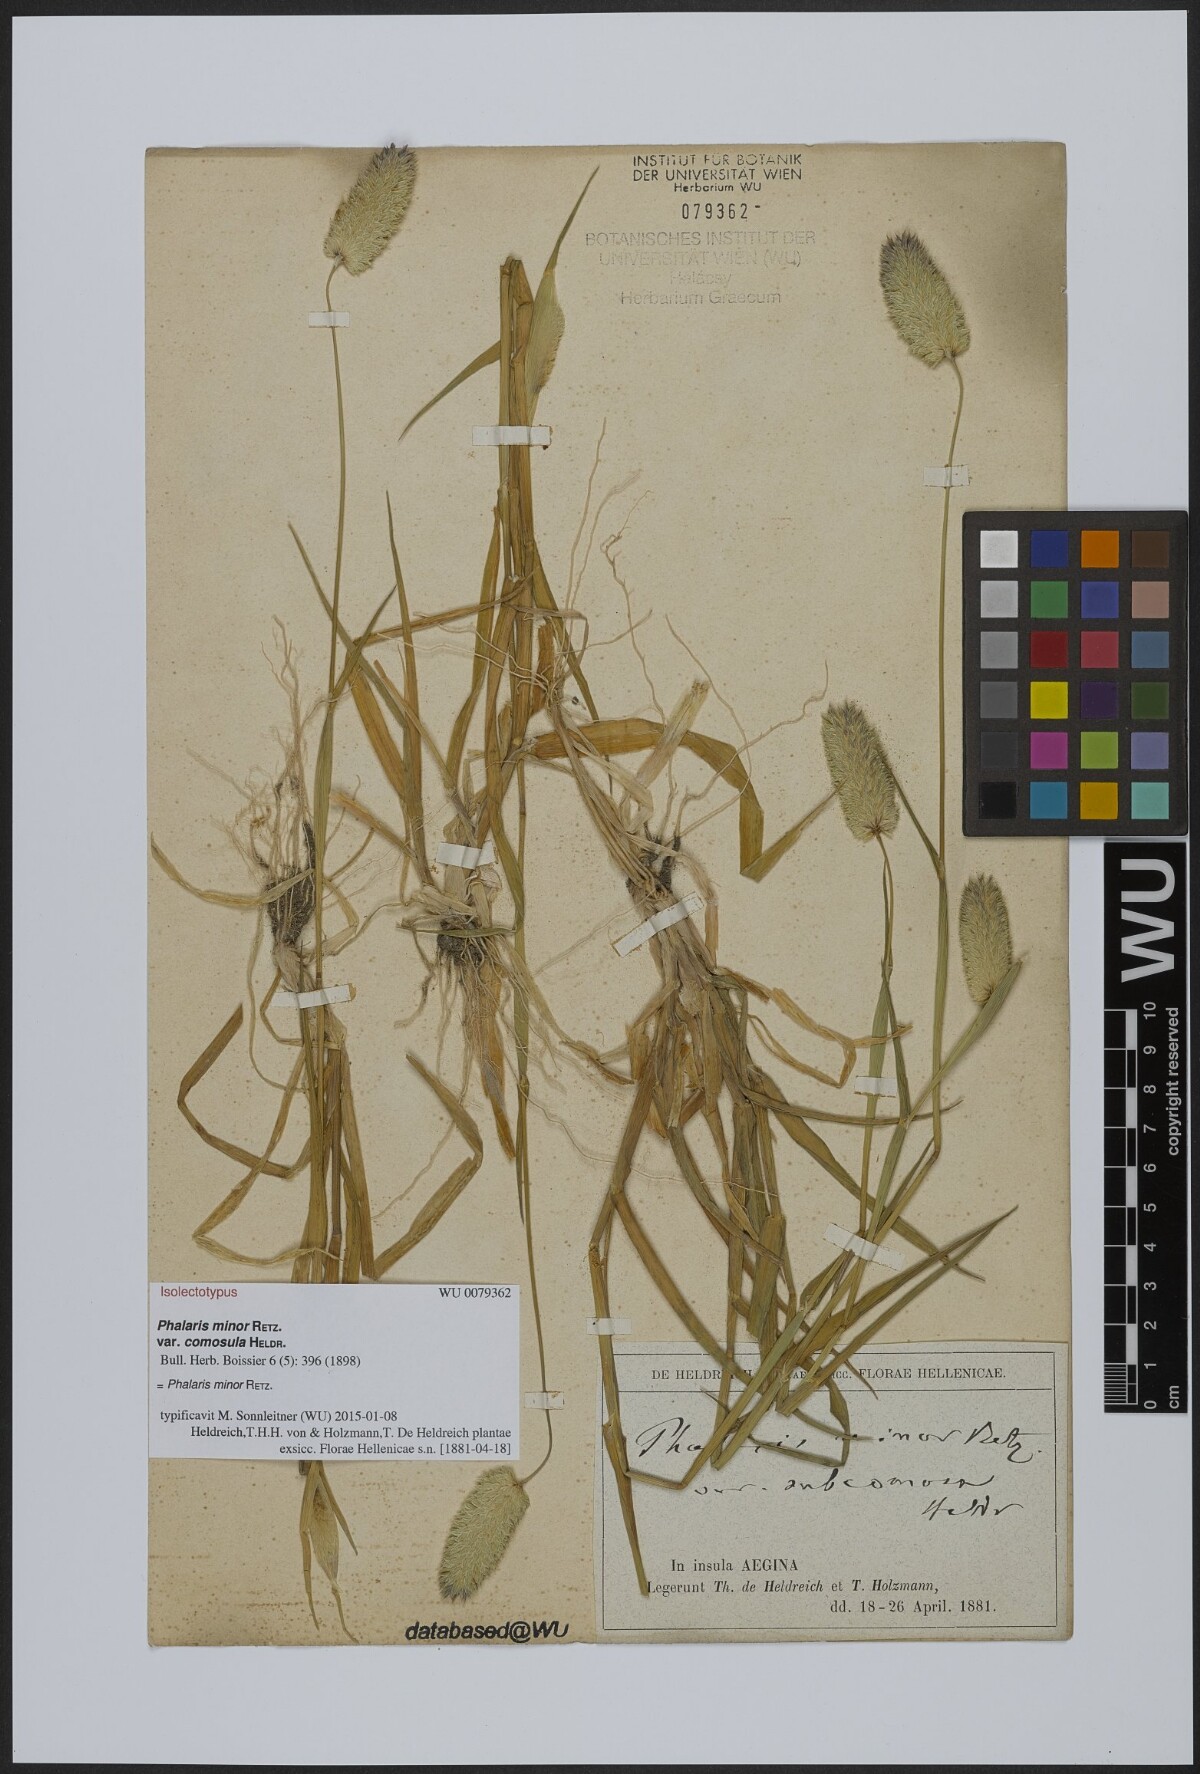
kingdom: Plantae
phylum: Tracheophyta
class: Liliopsida
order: Poales
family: Poaceae
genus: Phalaris
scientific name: Phalaris minor
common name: Littleseed canarygrass
